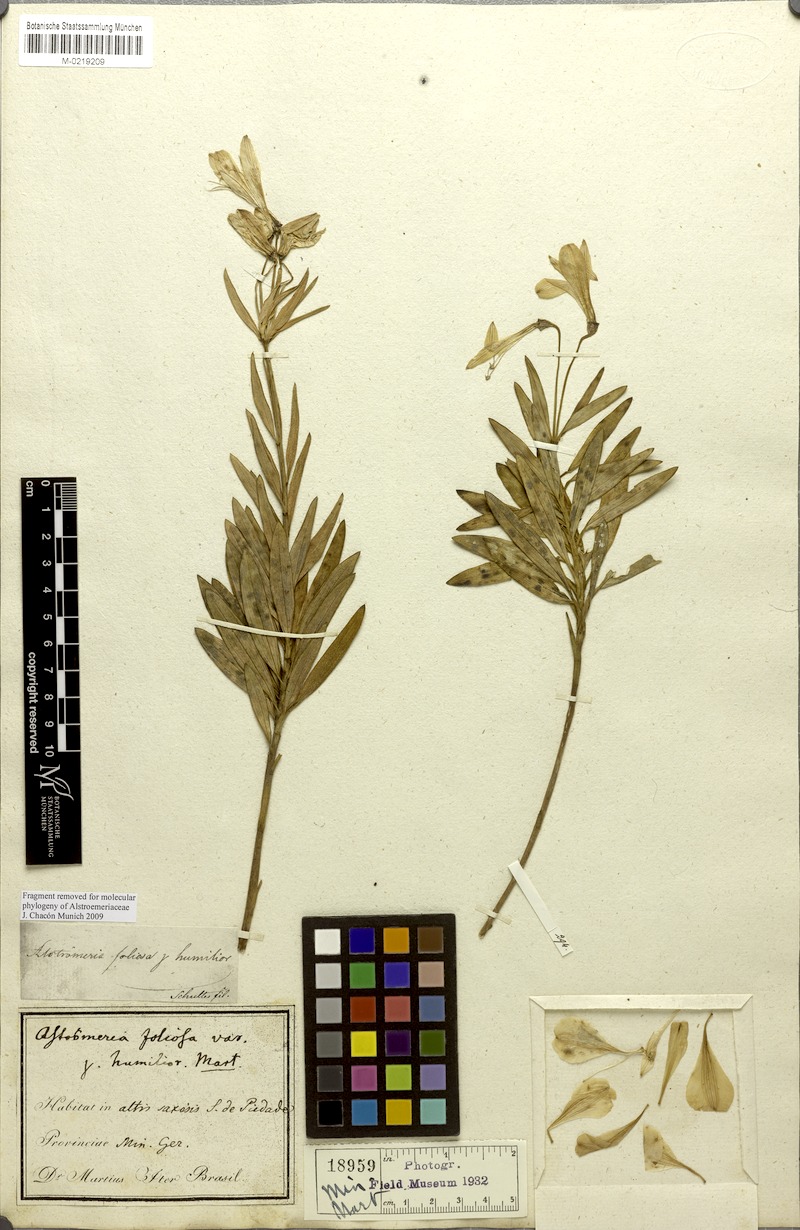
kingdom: Plantae
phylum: Tracheophyta
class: Liliopsida
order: Liliales
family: Alstroemeriaceae
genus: Alstroemeria
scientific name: Alstroemeria foliosa
